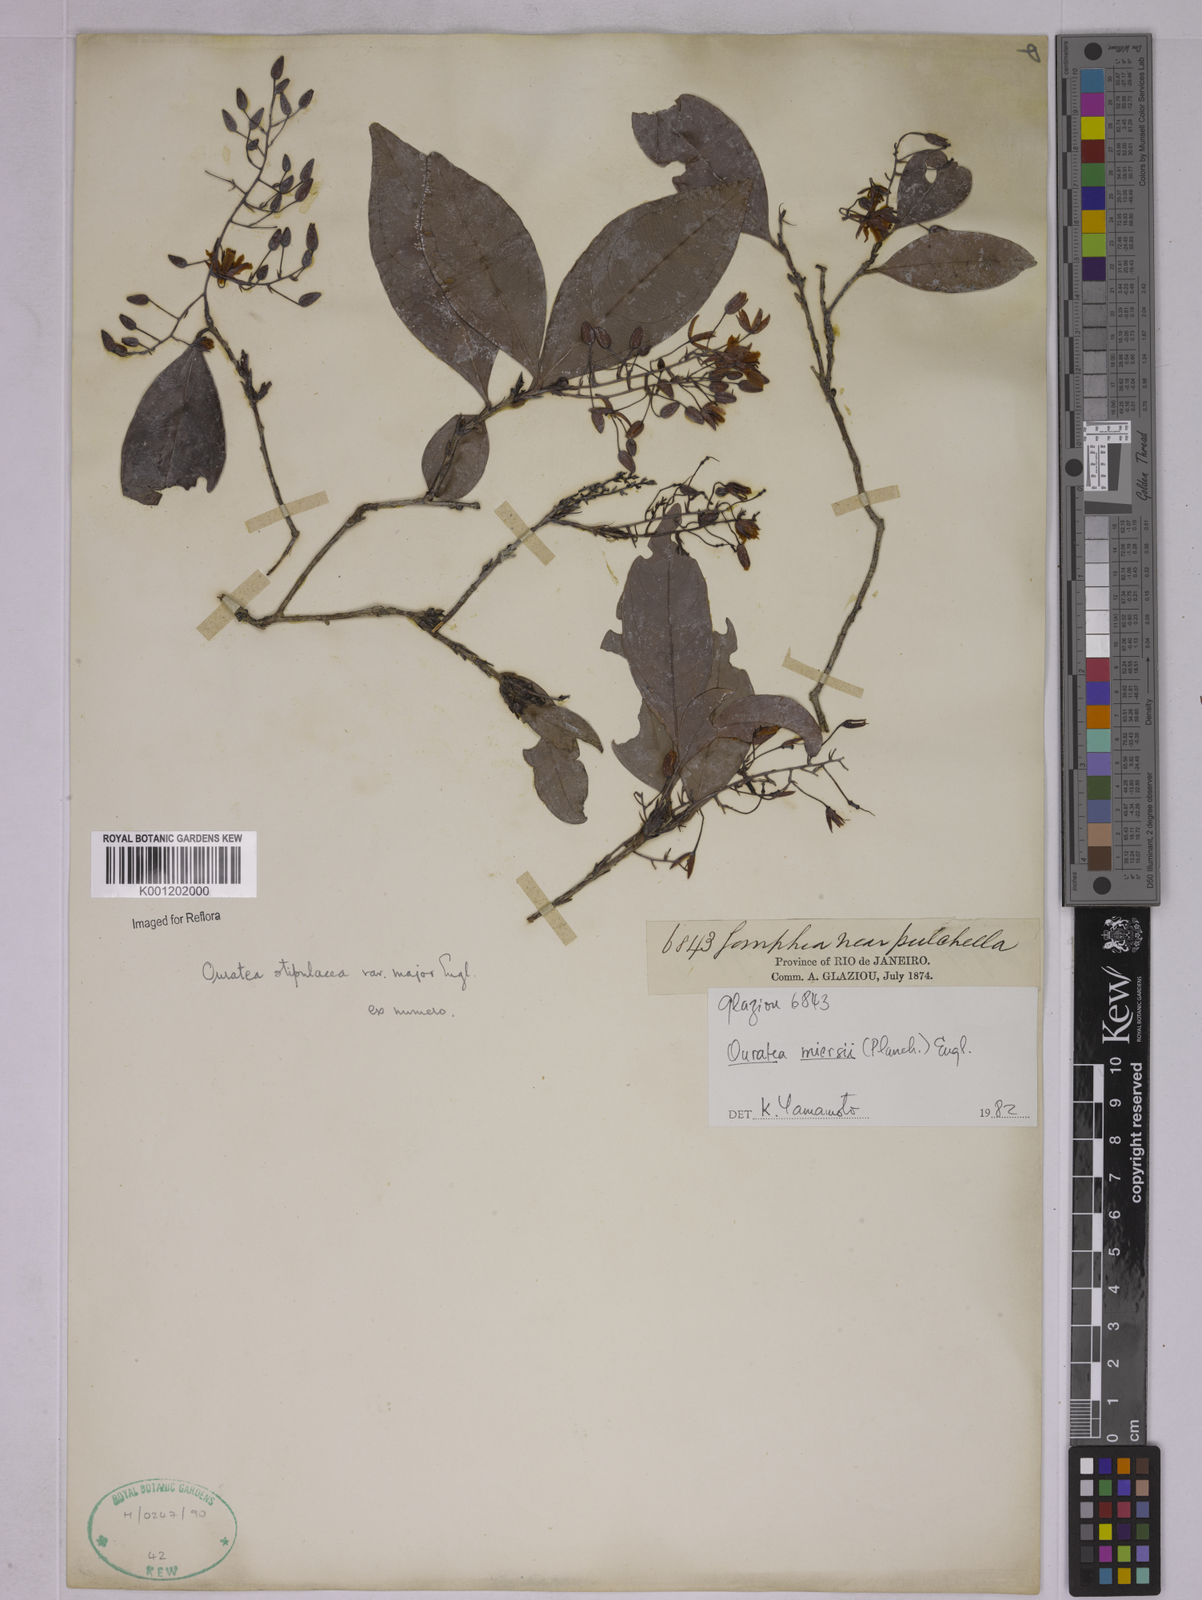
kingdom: Plantae
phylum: Tracheophyta
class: Magnoliopsida
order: Malpighiales
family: Ochnaceae
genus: Ouratea
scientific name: Ouratea miersii
